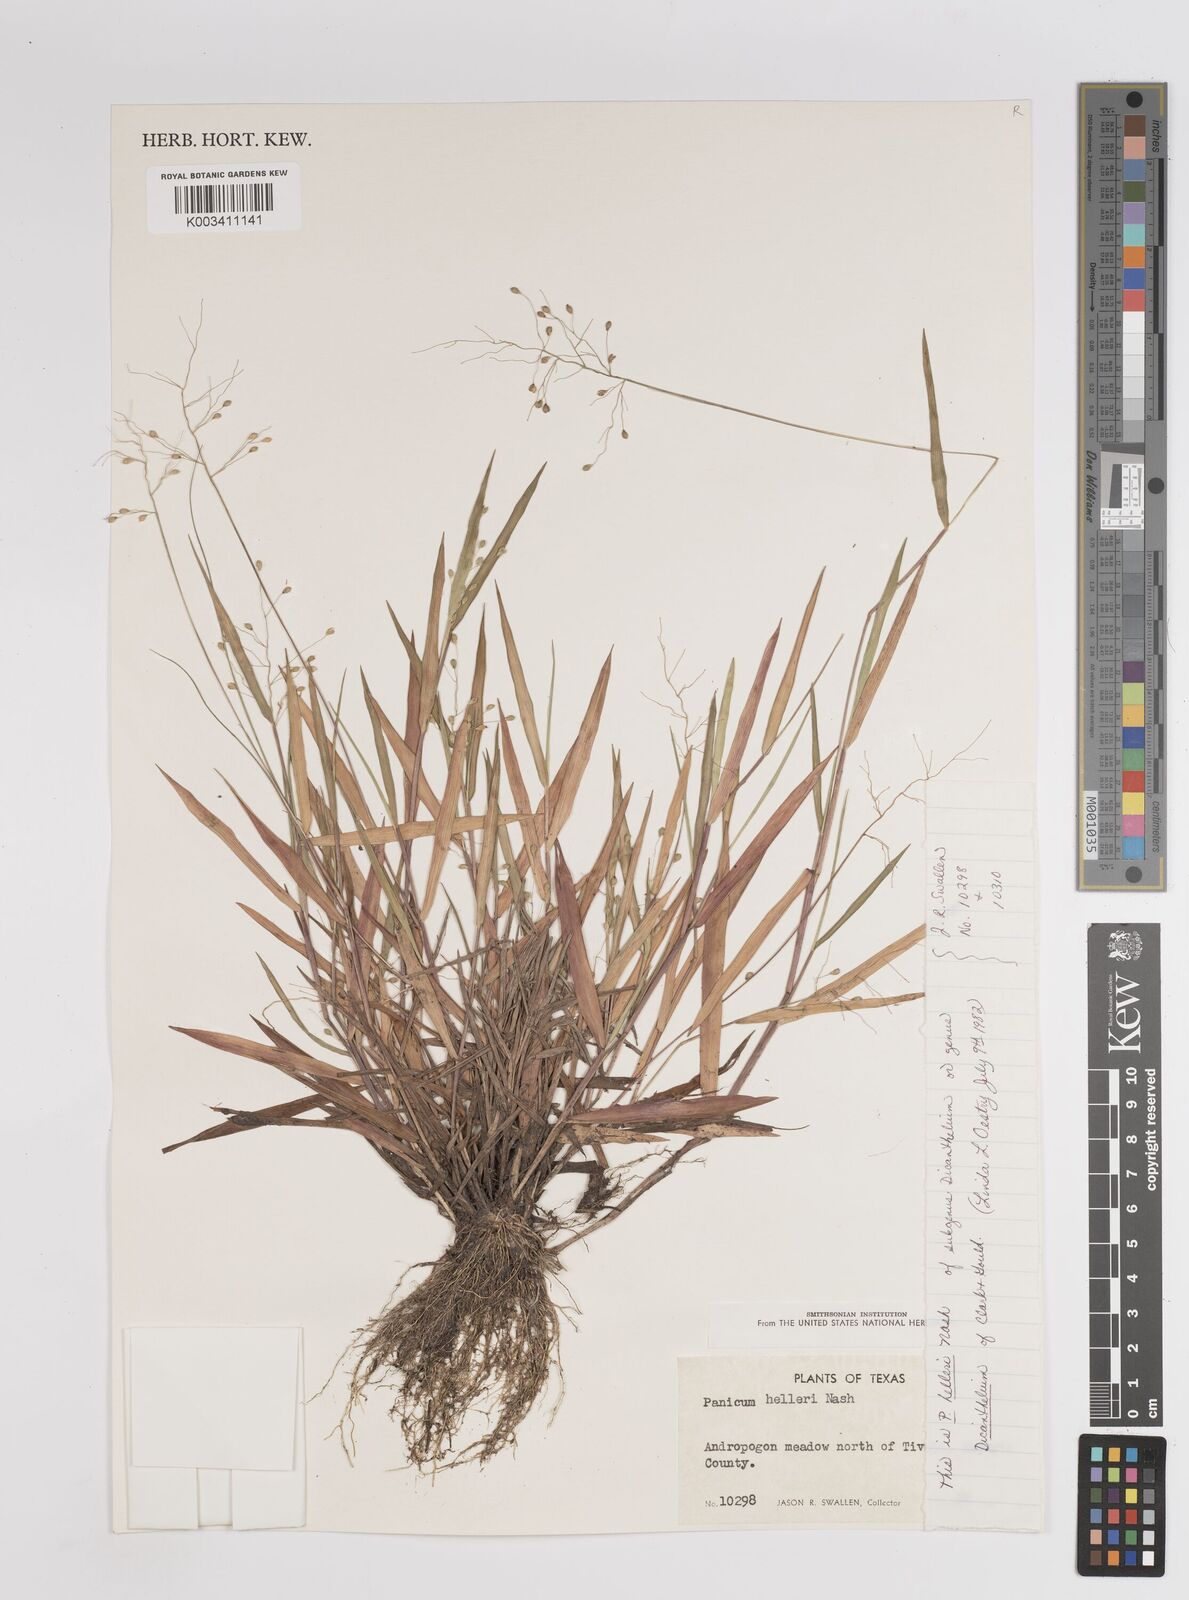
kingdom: Plantae
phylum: Tracheophyta
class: Liliopsida
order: Poales
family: Poaceae
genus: Dichanthelium
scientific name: Dichanthelium oligosanthes
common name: Few-anther obscuregrass
